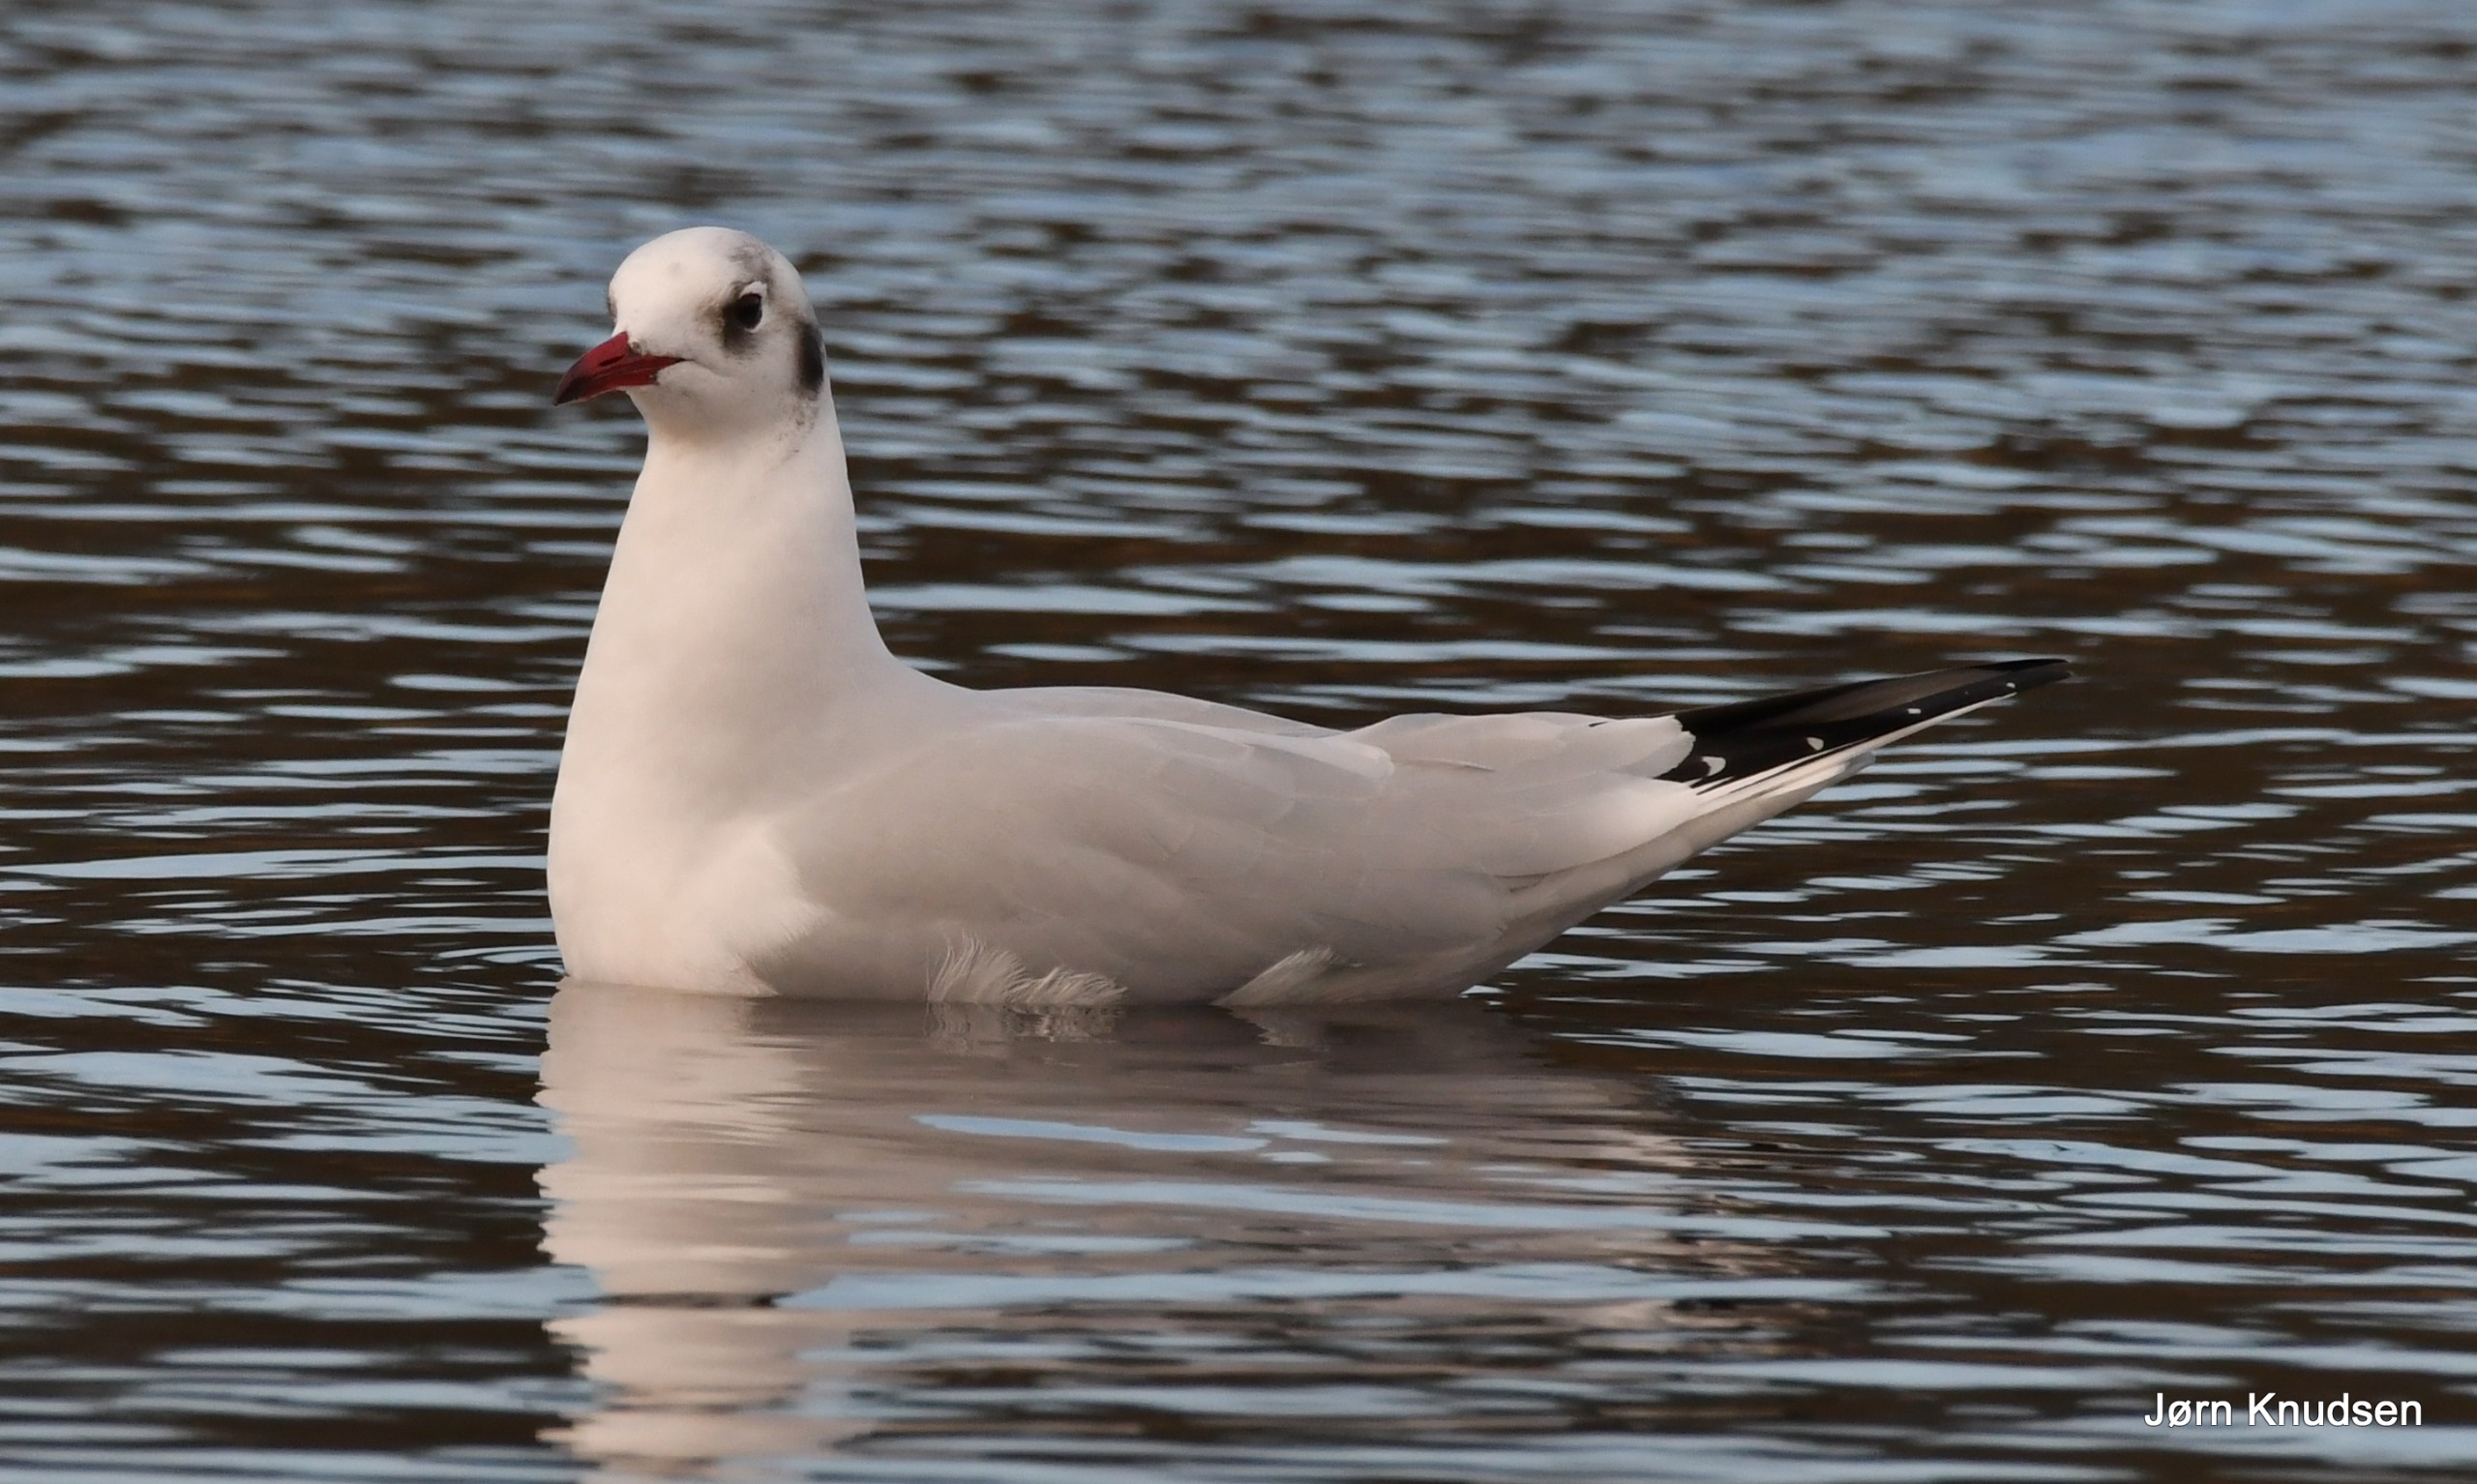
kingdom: Animalia
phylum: Chordata
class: Aves
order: Charadriiformes
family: Laridae
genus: Chroicocephalus
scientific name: Chroicocephalus ridibundus
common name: Hættemåge
